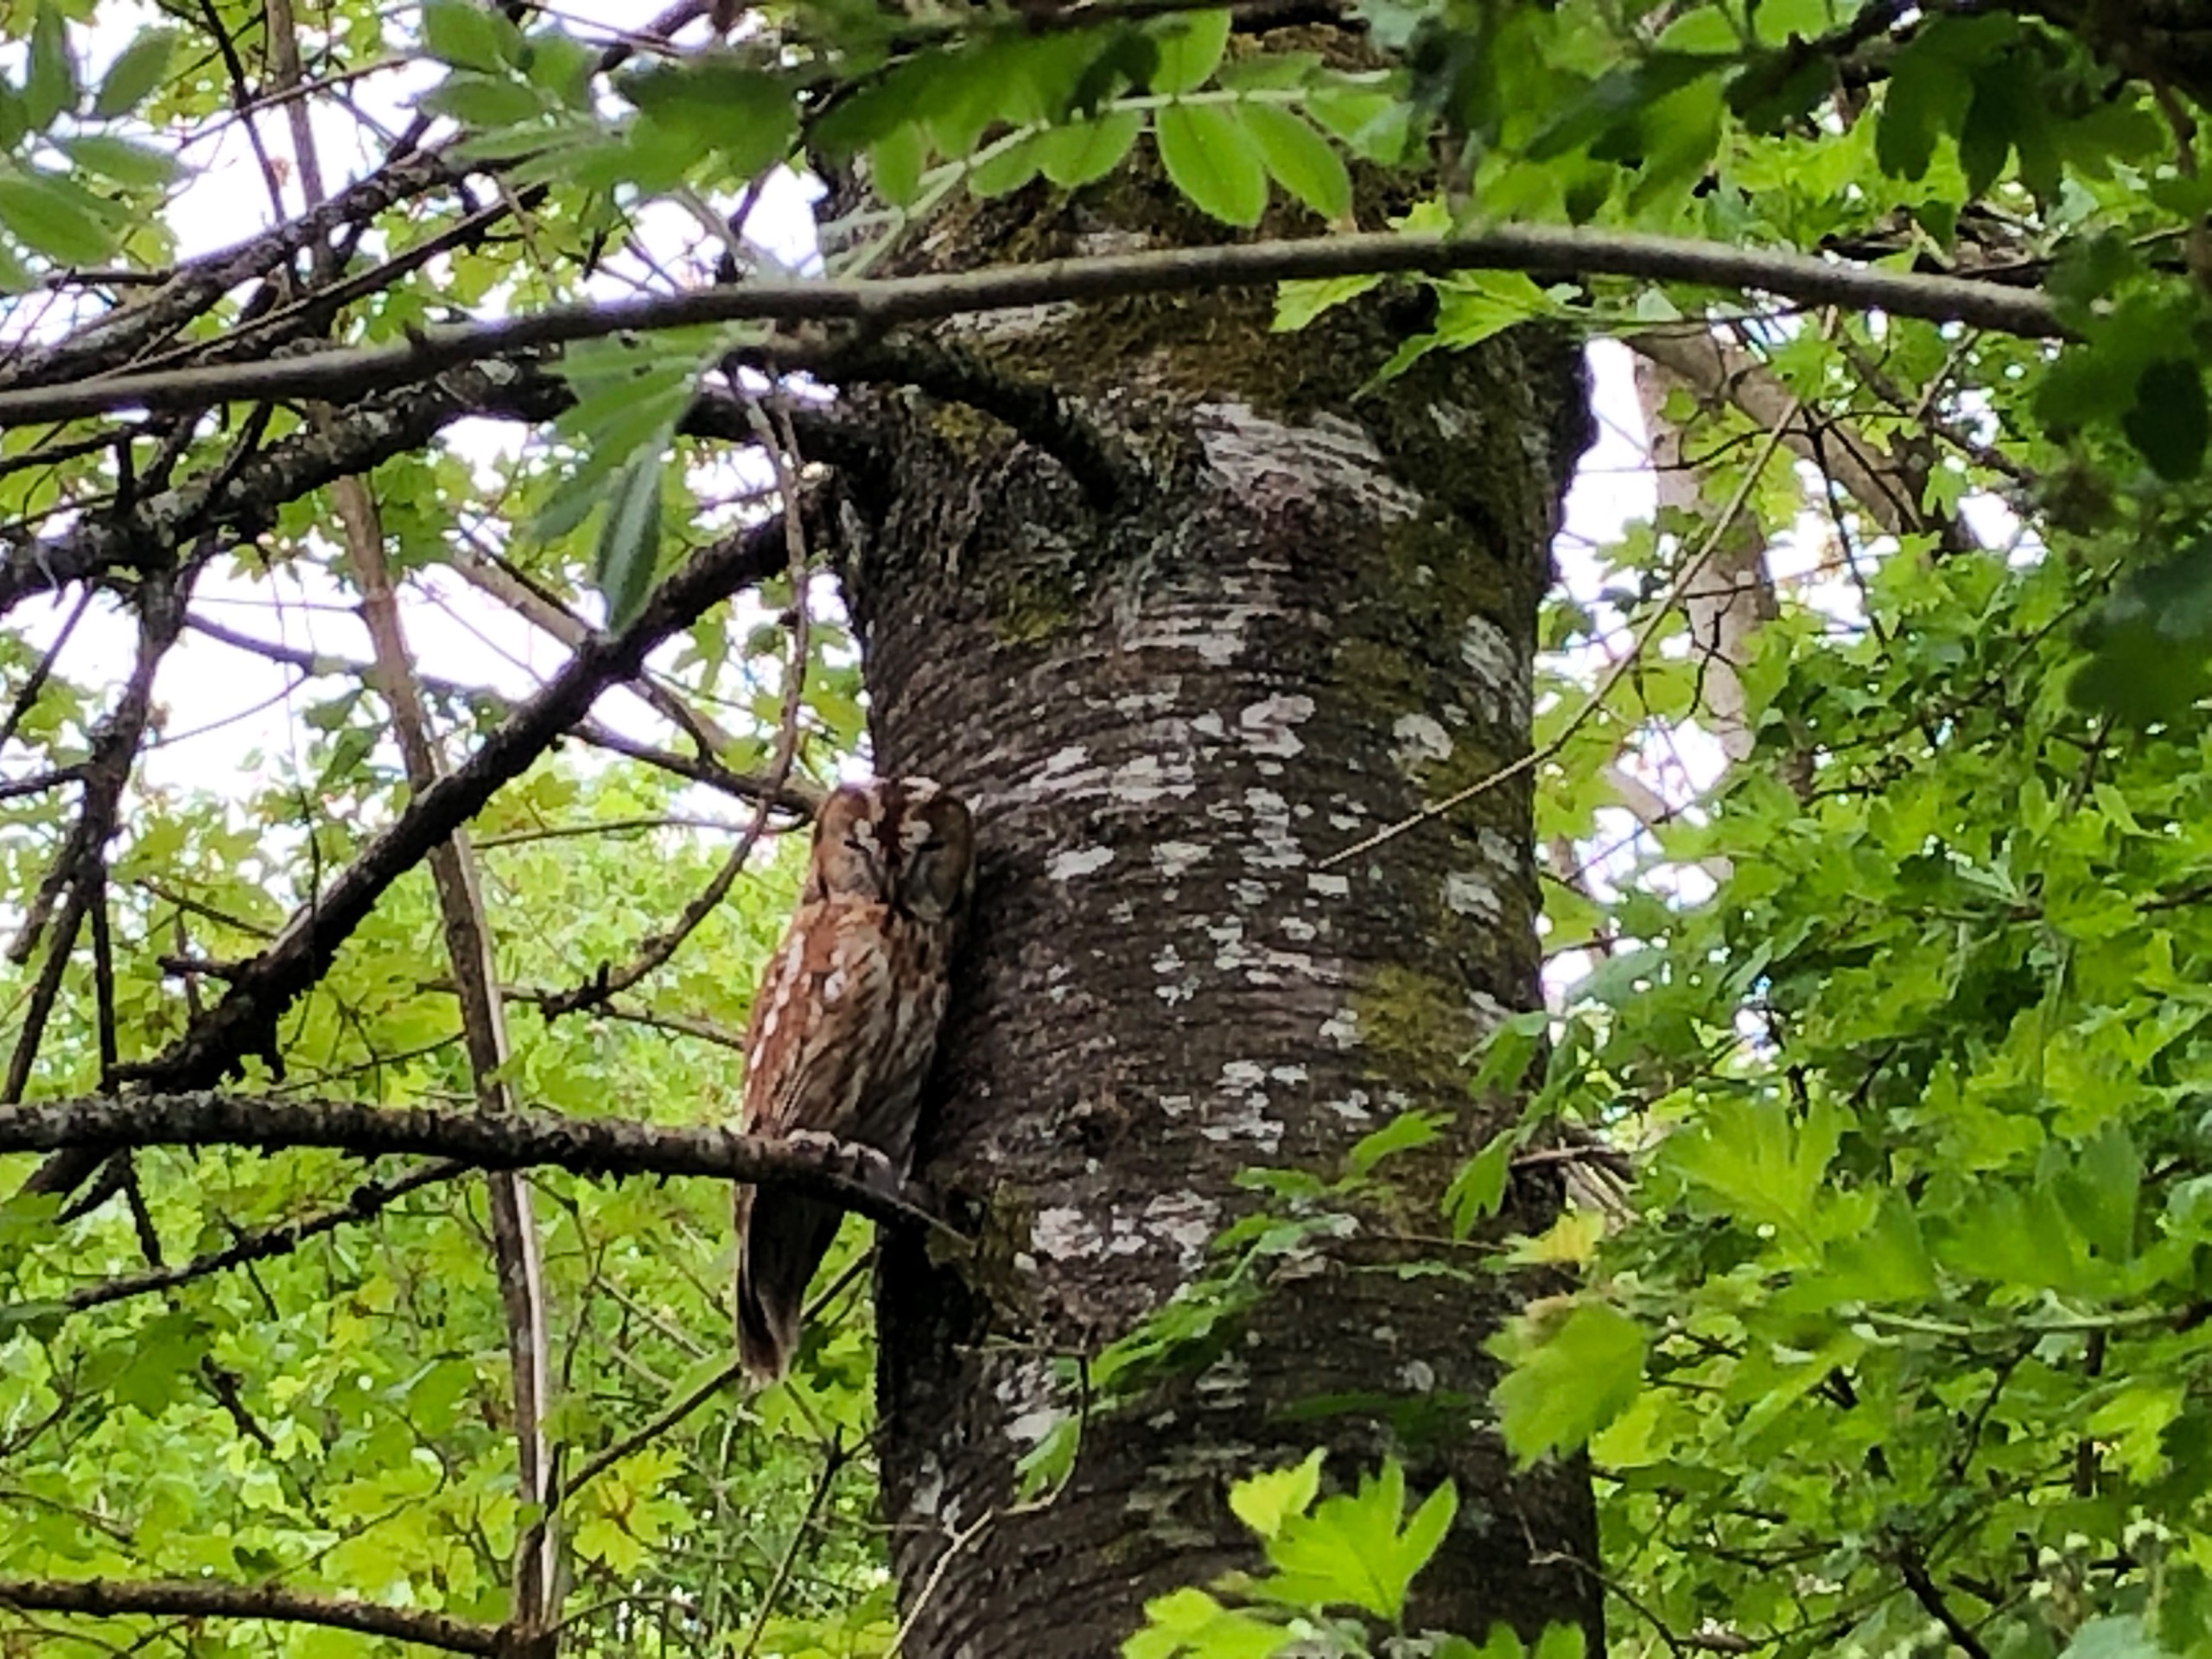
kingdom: Animalia
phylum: Chordata
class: Aves
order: Strigiformes
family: Strigidae
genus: Strix
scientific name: Strix aluco
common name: Natugle
